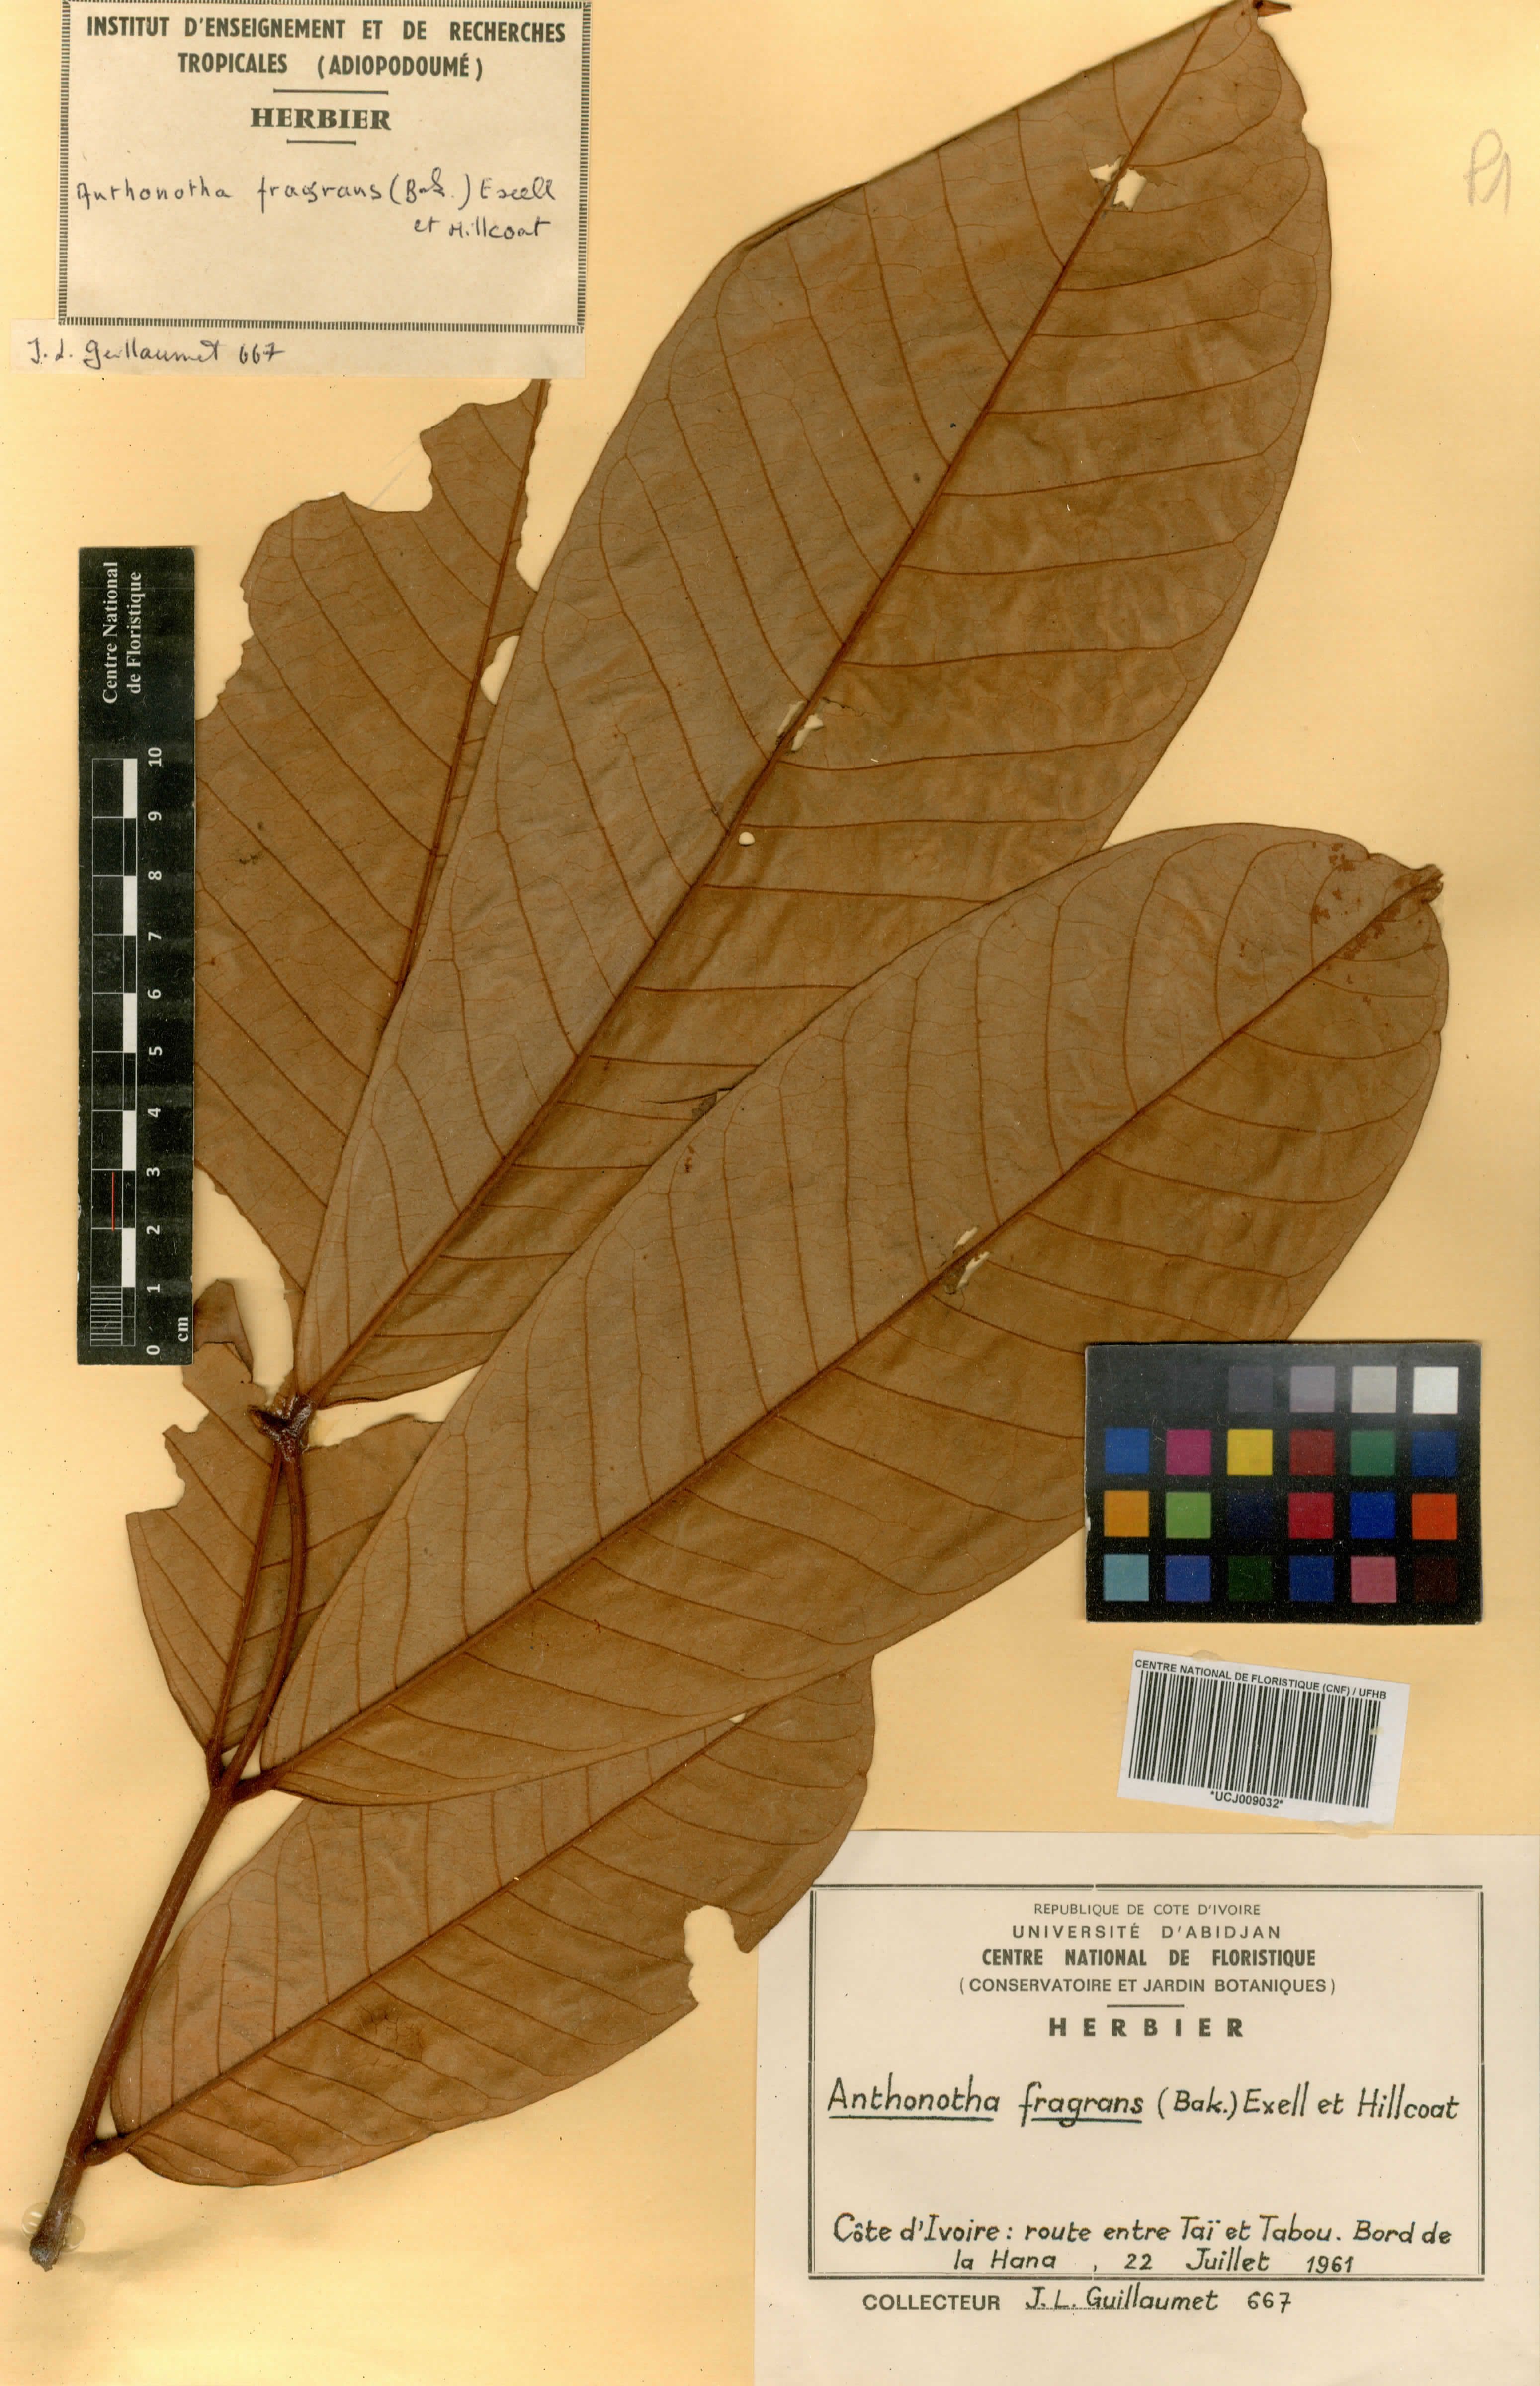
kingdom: Plantae
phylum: Tracheophyta
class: Magnoliopsida
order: Fabales
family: Fabaceae
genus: Anthonotha
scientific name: Anthonotha fragrans
